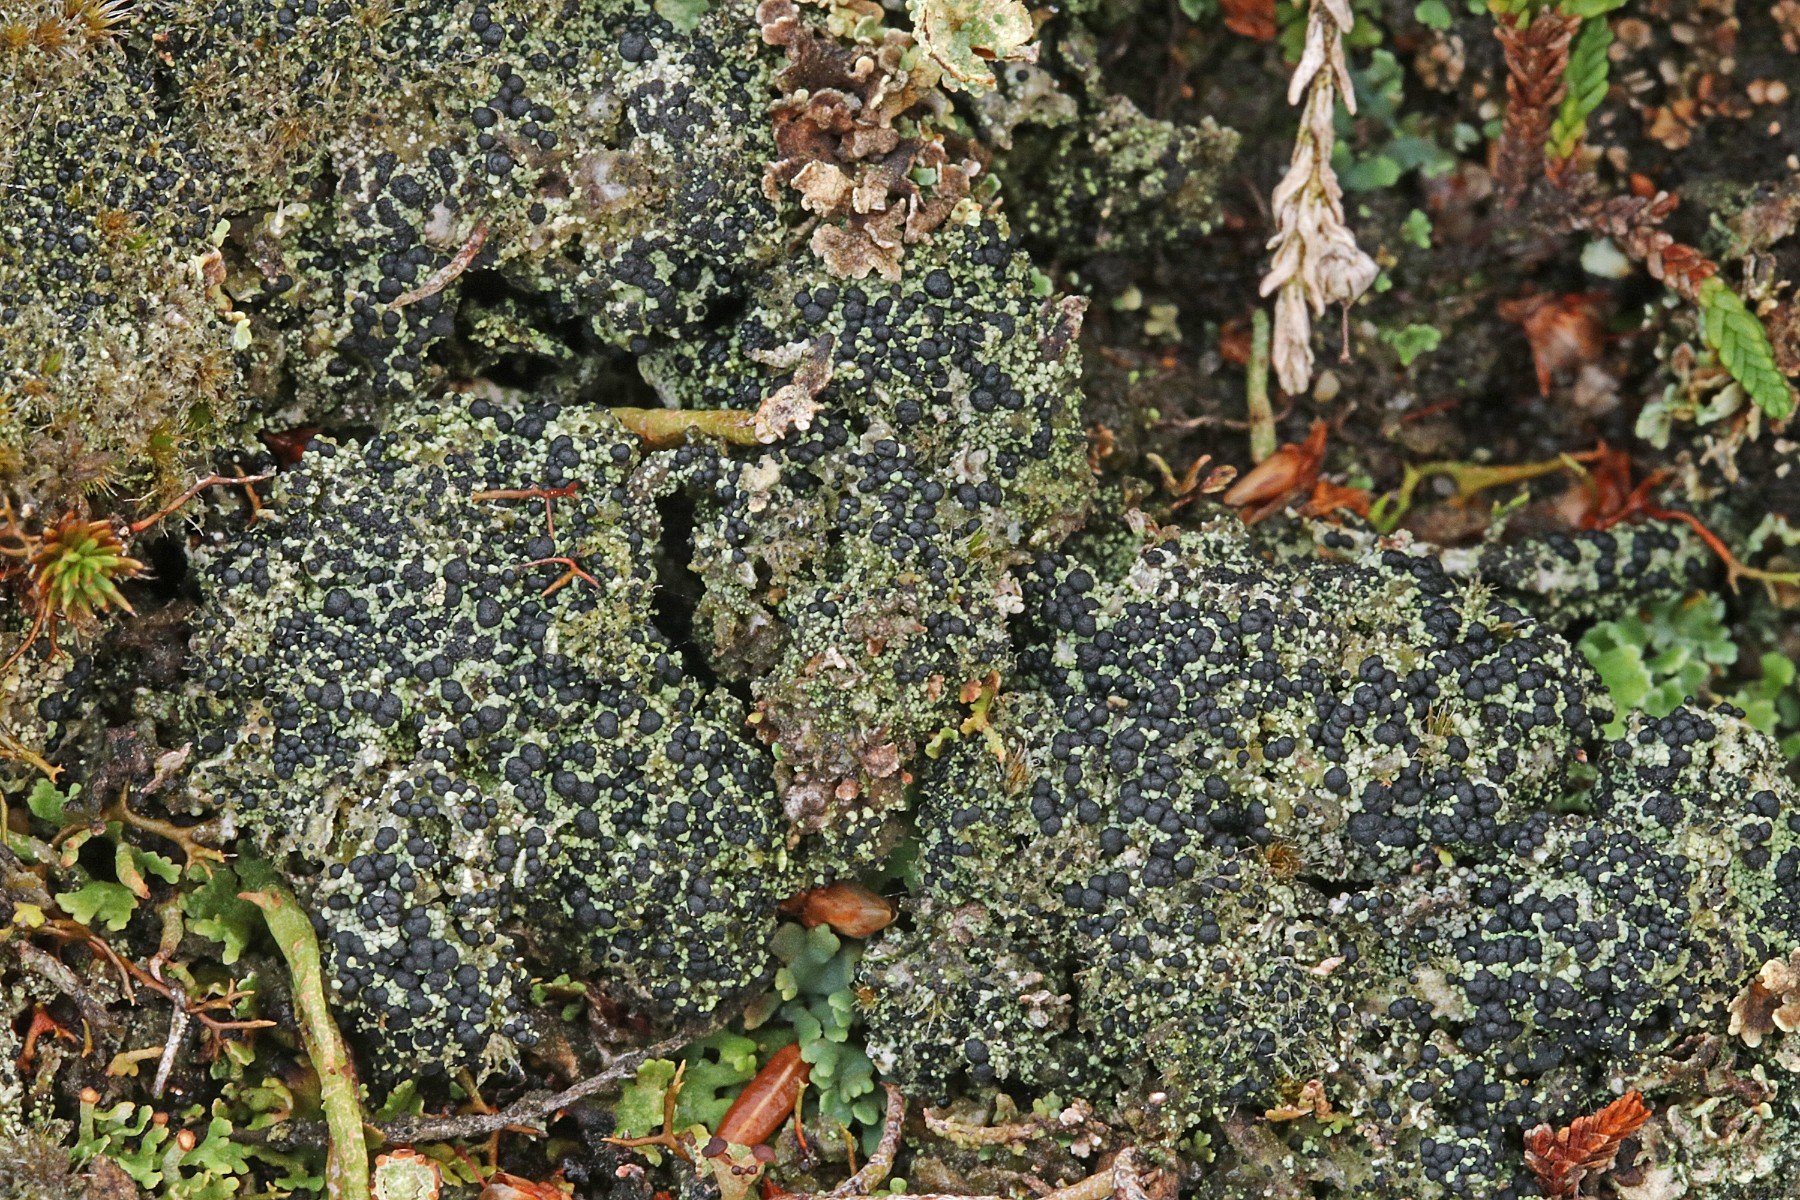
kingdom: Fungi
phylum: Ascomycota
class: Lecanoromycetes
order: Lecanorales
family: Byssolomataceae
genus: Micarea
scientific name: Micarea lignaria
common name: tørve-knaplav
